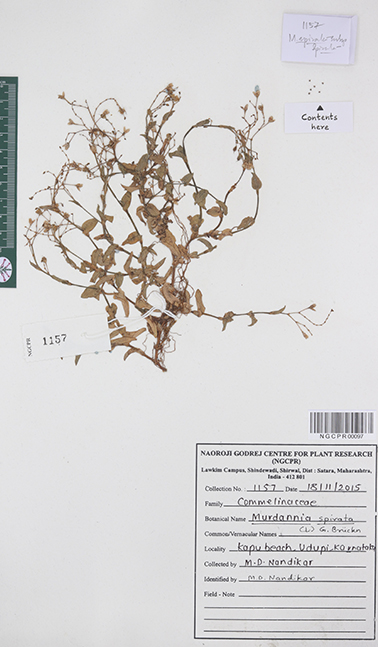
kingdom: Plantae
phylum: Tracheophyta
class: Liliopsida
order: Commelinales
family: Commelinaceae
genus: Murdannia
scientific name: Murdannia spirata
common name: Asiatic dewflower
